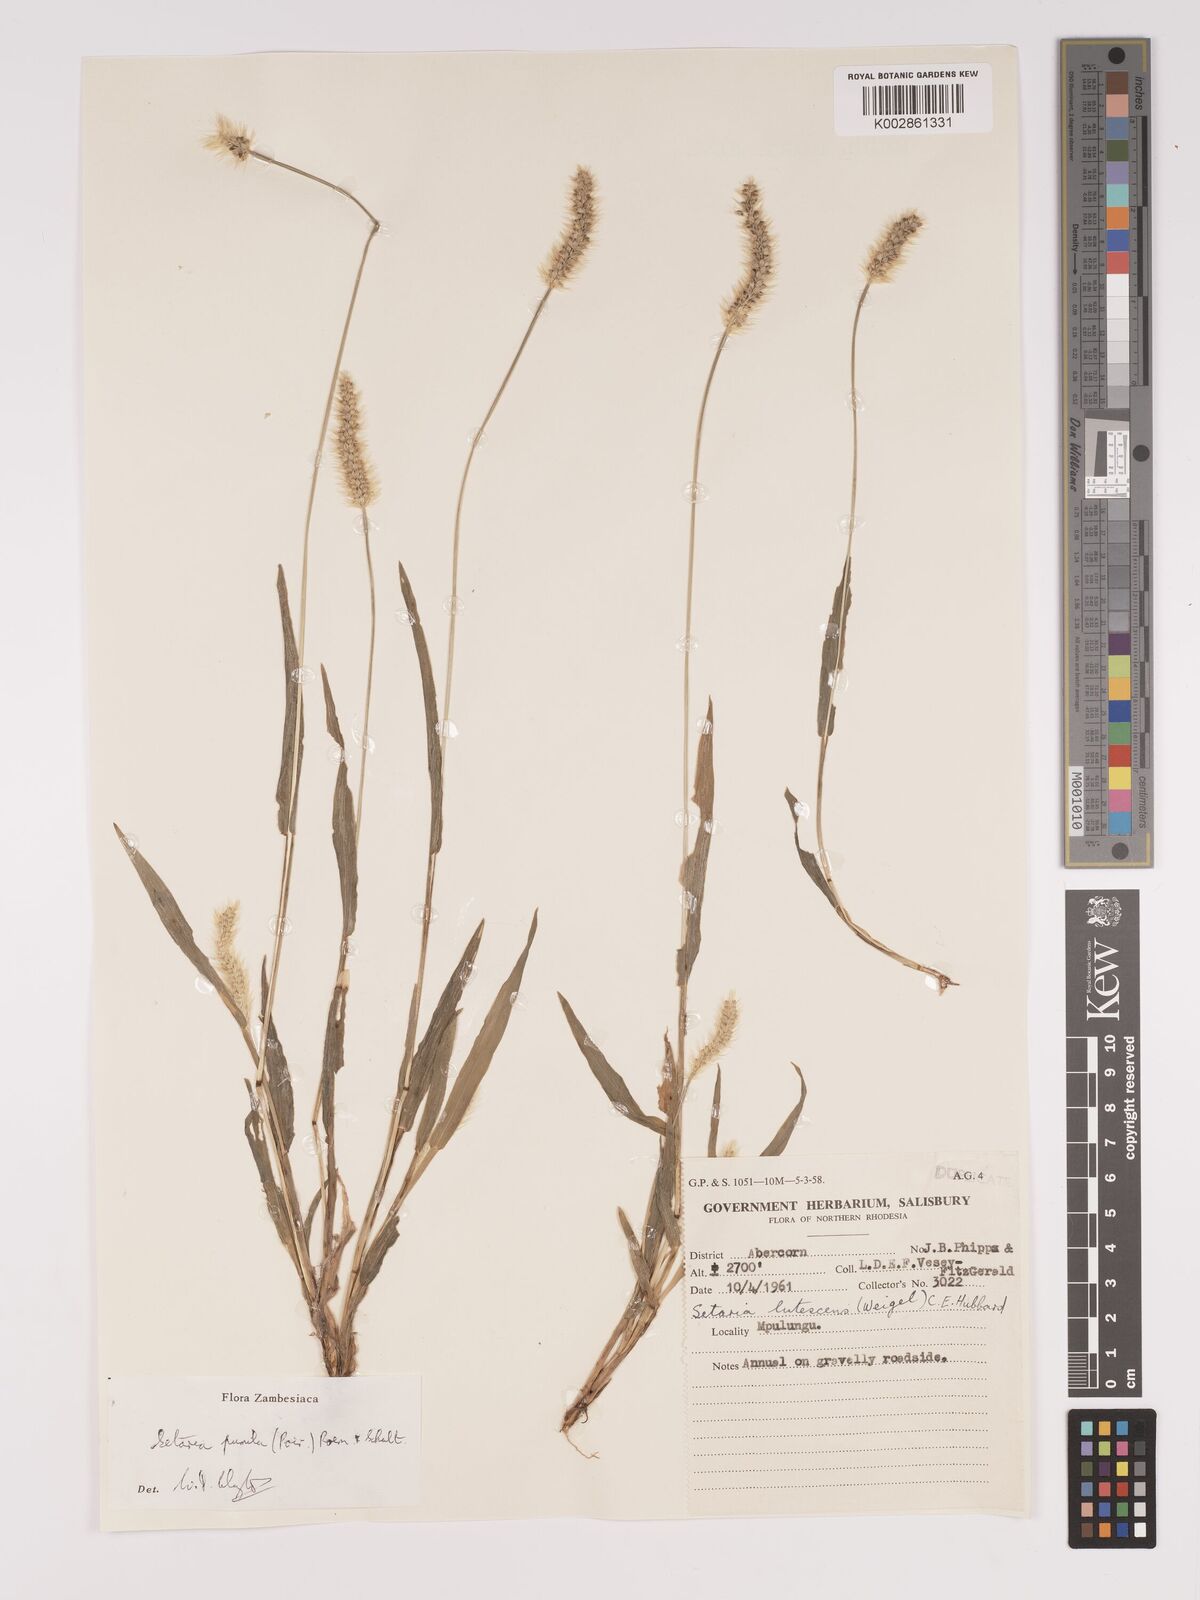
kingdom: Plantae
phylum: Tracheophyta
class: Liliopsida
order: Poales
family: Poaceae
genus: Setaria
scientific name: Setaria pumila
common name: Yellow bristle-grass
